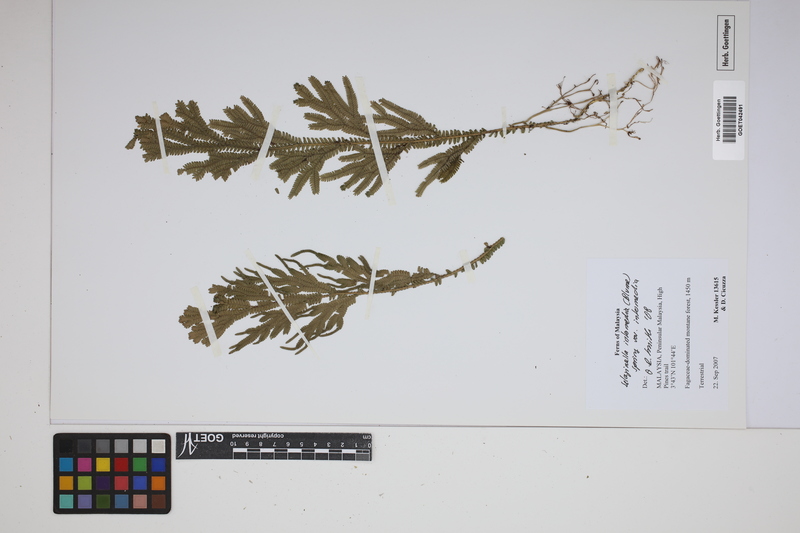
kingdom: Plantae
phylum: Tracheophyta
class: Lycopodiopsida
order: Selaginellales
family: Selaginellaceae
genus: Selaginella
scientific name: Selaginella intermedia
